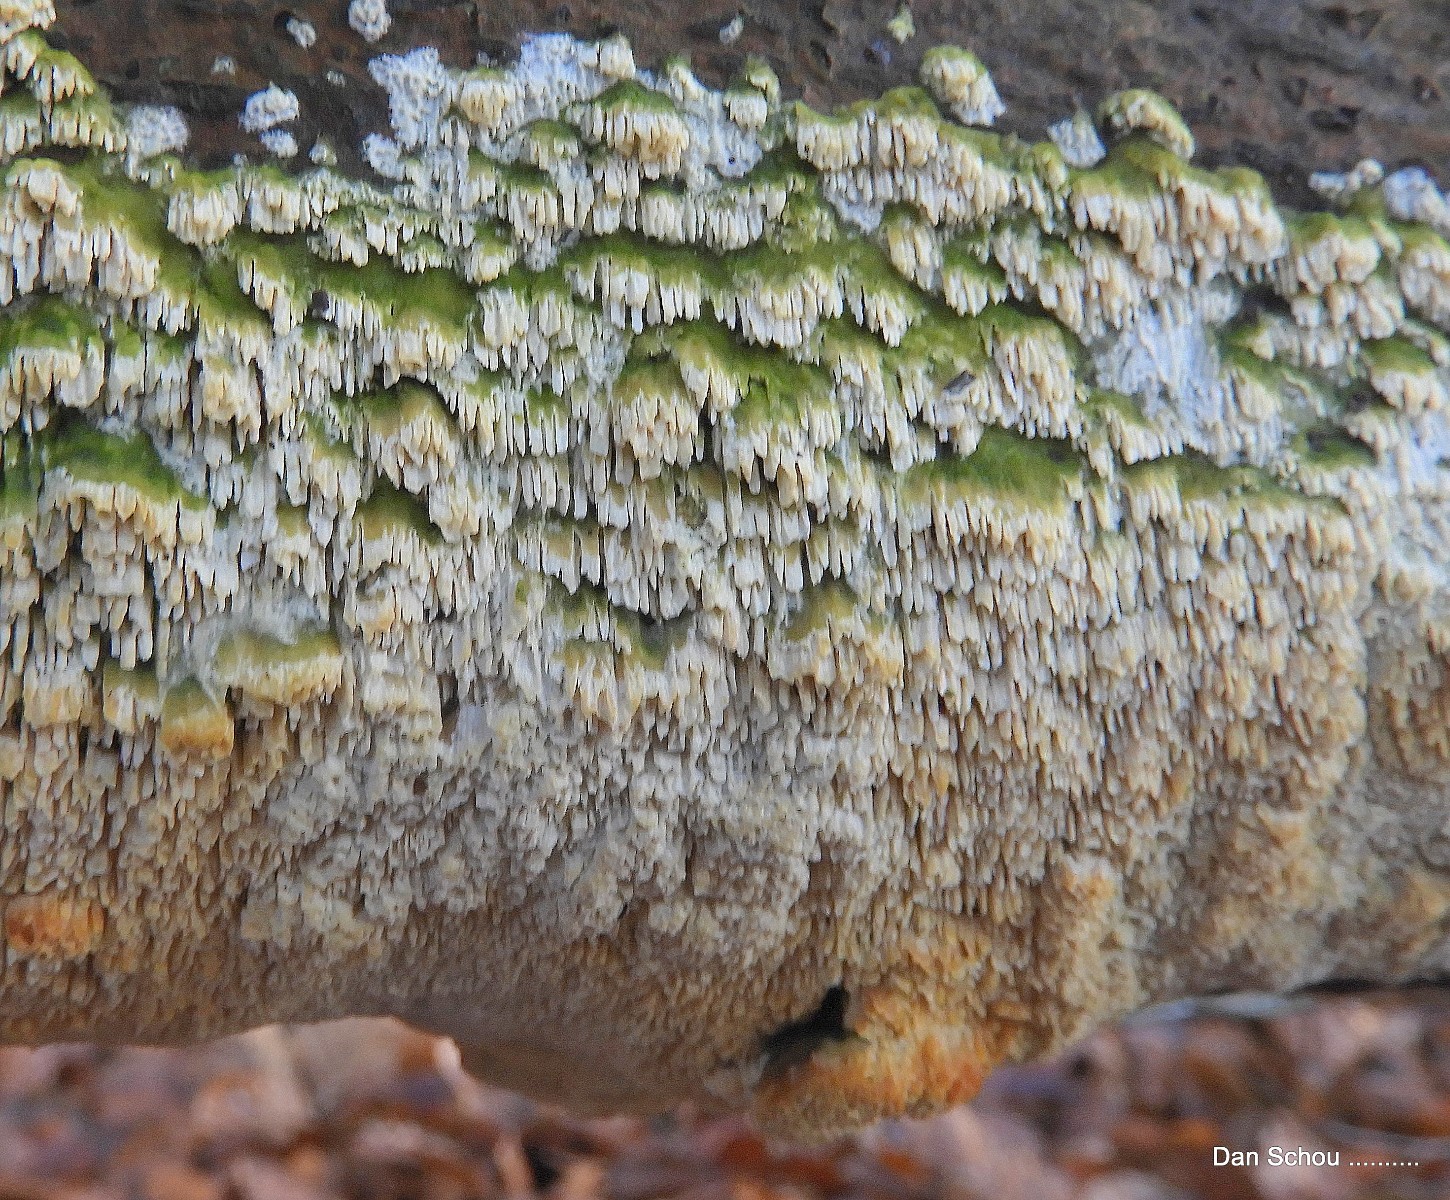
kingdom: Fungi
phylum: Basidiomycota
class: Agaricomycetes
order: Hymenochaetales
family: Schizoporaceae
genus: Schizopora
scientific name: Schizopora paradoxa
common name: hvid tandsvamp
